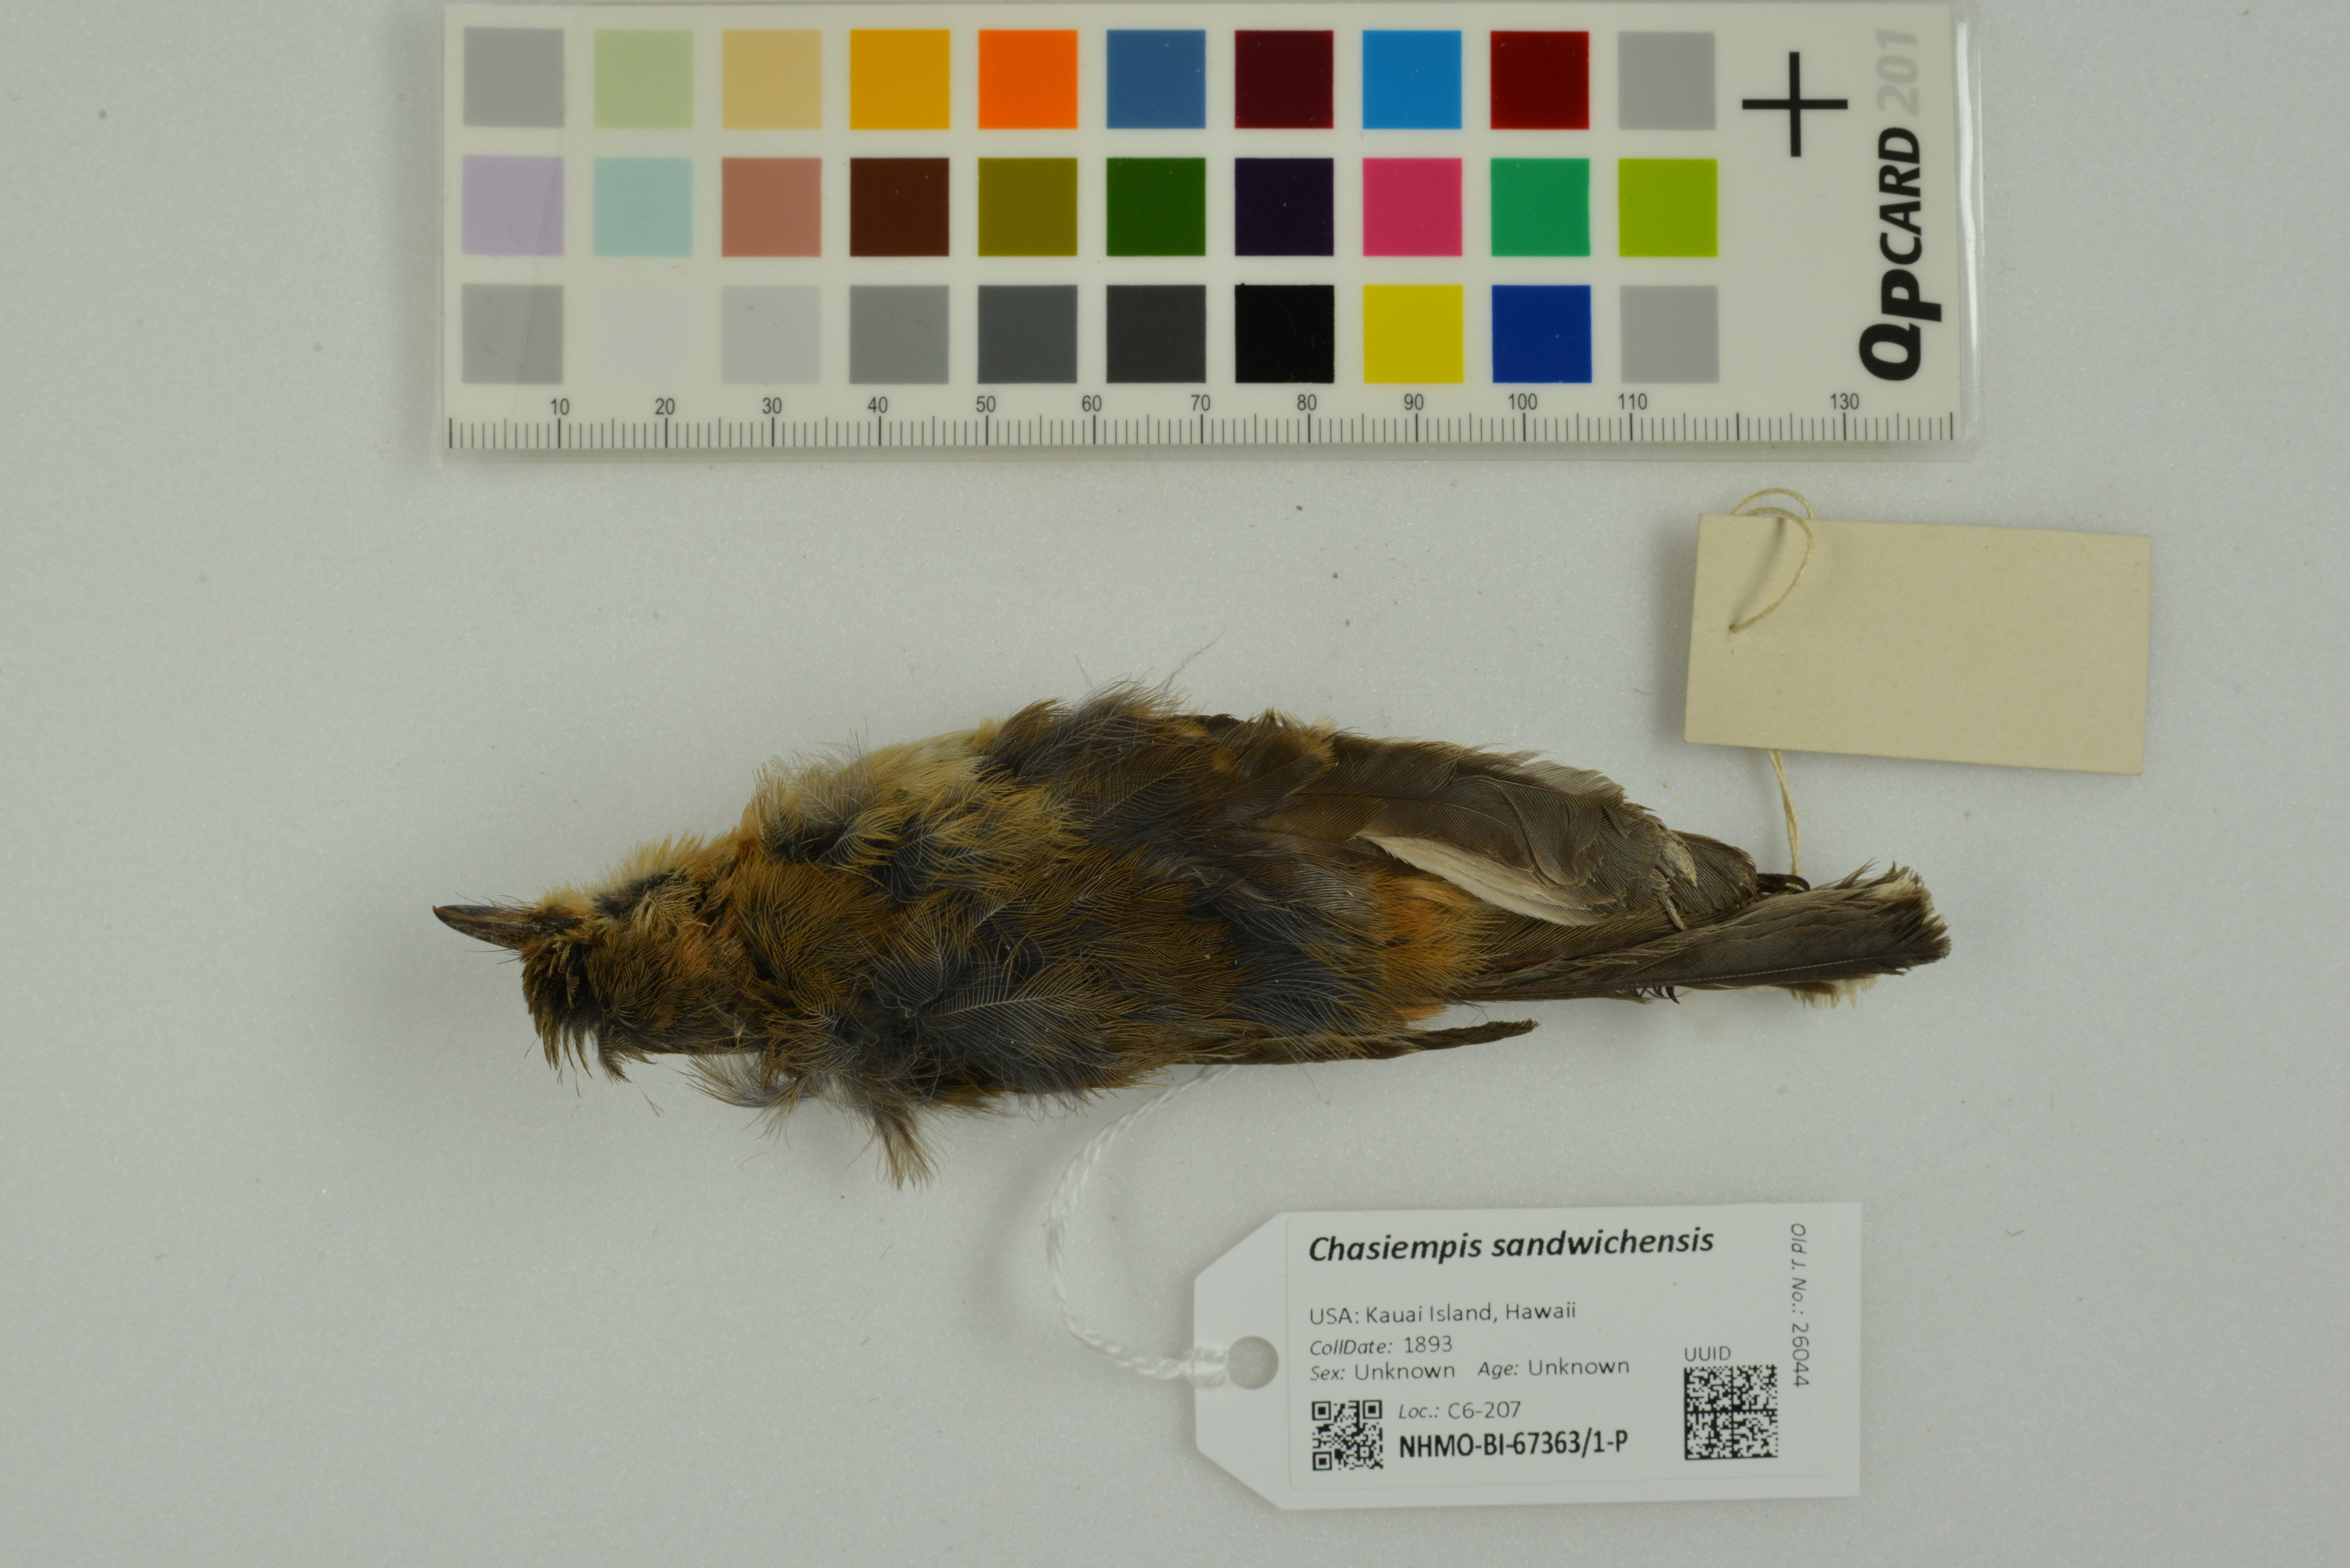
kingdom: Animalia
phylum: Chordata
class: Aves
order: Passeriformes
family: Monarchidae
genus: Chasiempis
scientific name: Chasiempis sandwichensis
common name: Hawaii elepaio
